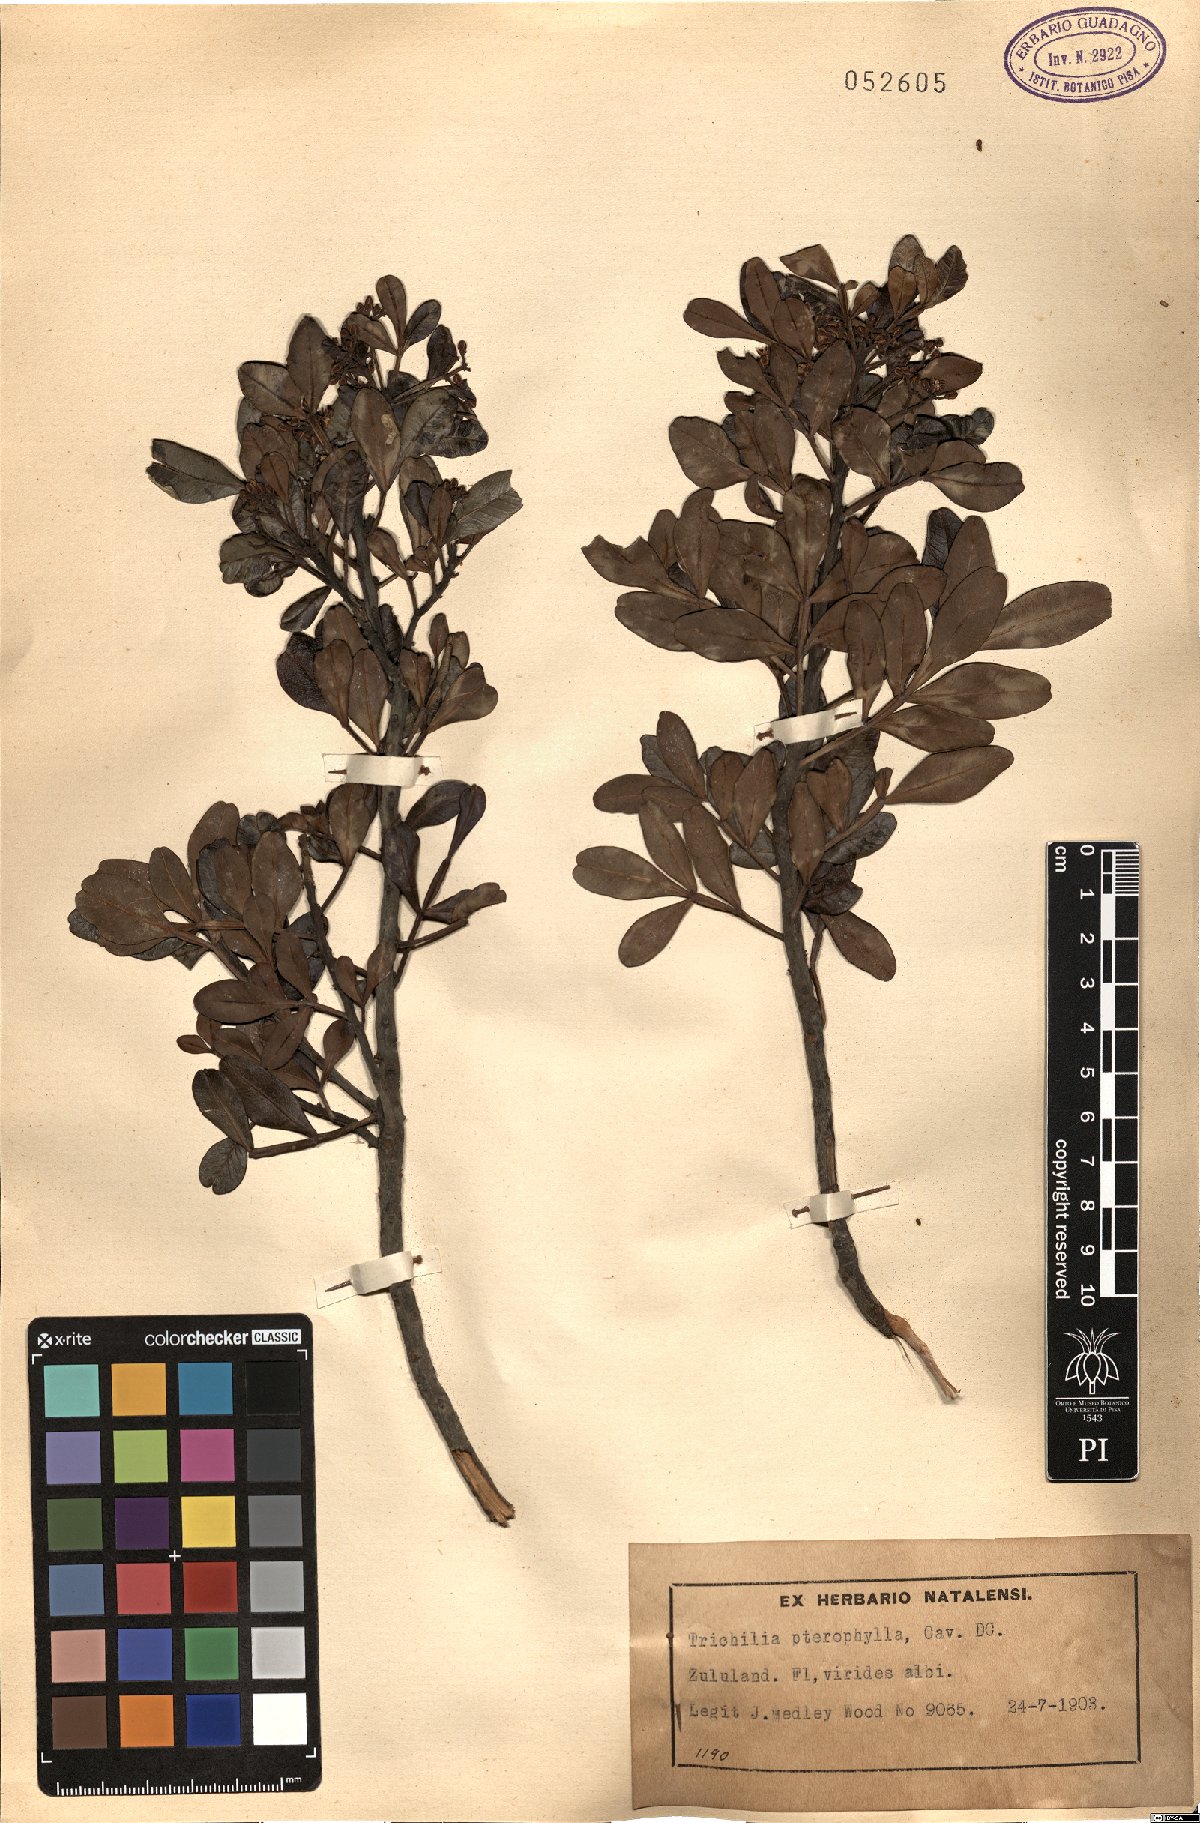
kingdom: Plantae
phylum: Tracheophyta
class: Magnoliopsida
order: Sapindales
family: Meliaceae
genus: Ekebergia
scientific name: Ekebergia pterophylla
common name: Cape ash
